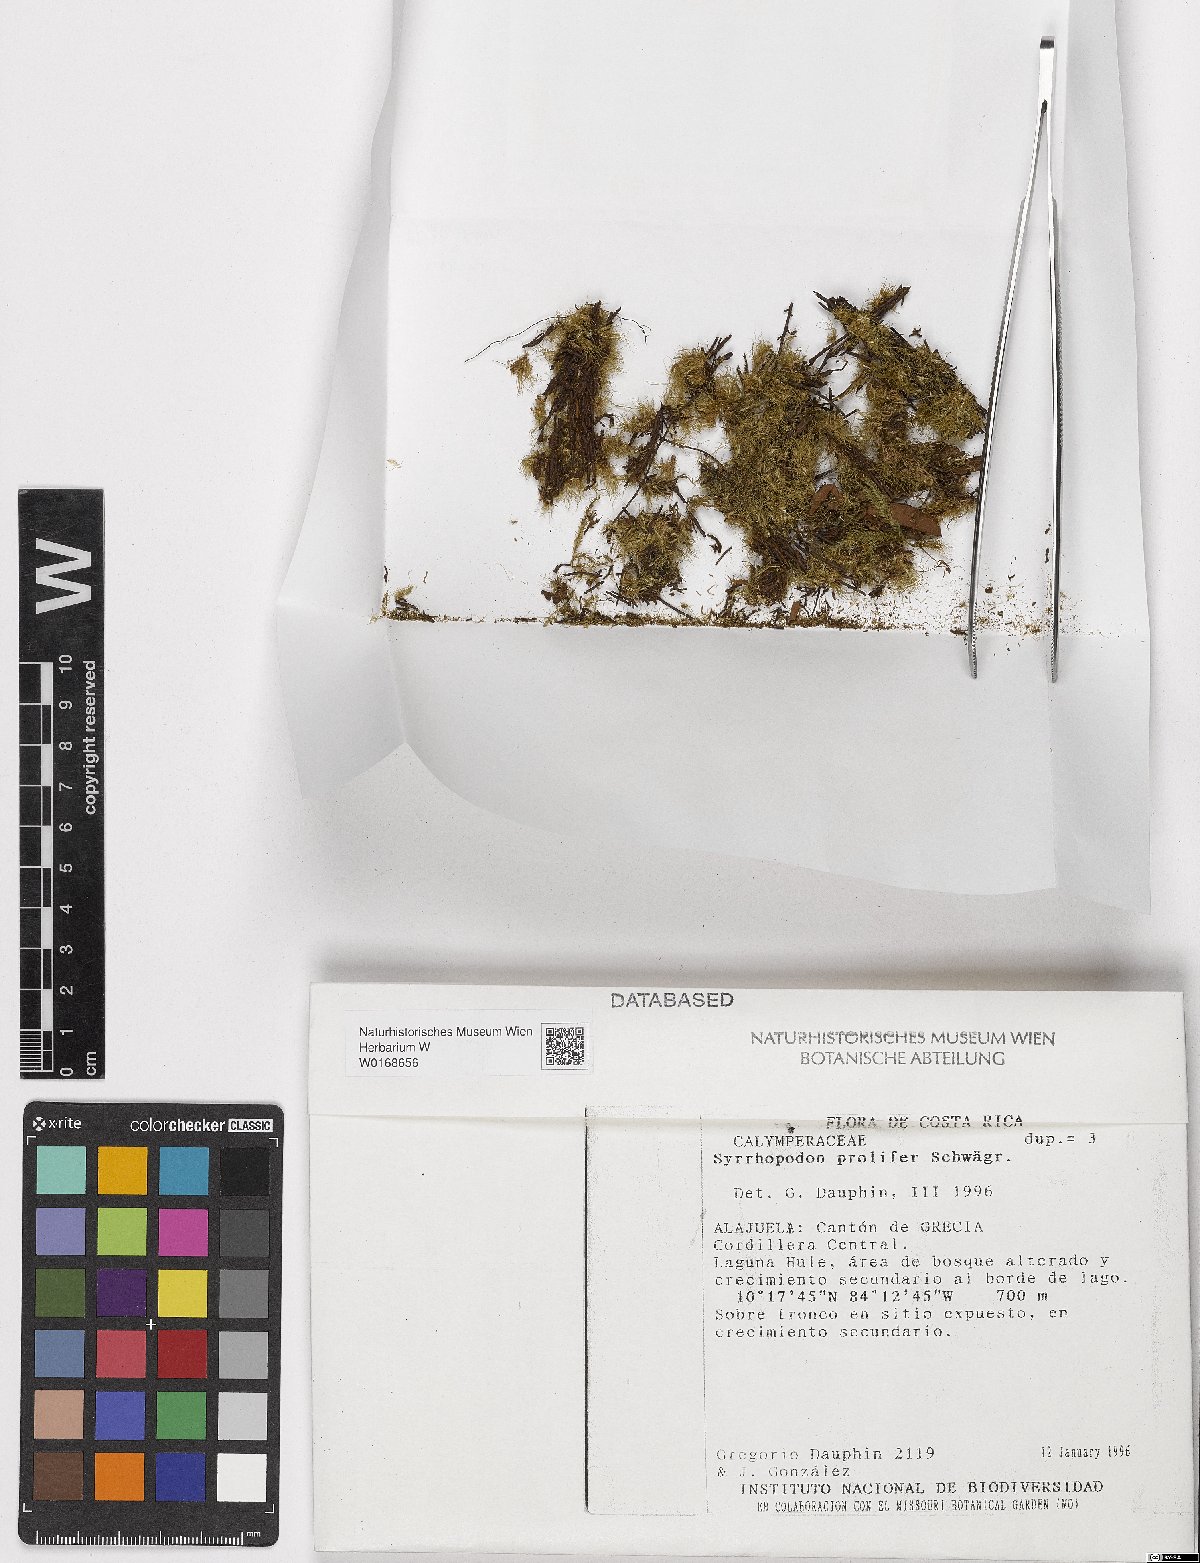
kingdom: Plantae
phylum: Bryophyta
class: Bryopsida
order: Dicranales
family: Calymperaceae
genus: Syrrhopodon
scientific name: Syrrhopodon prolifer
